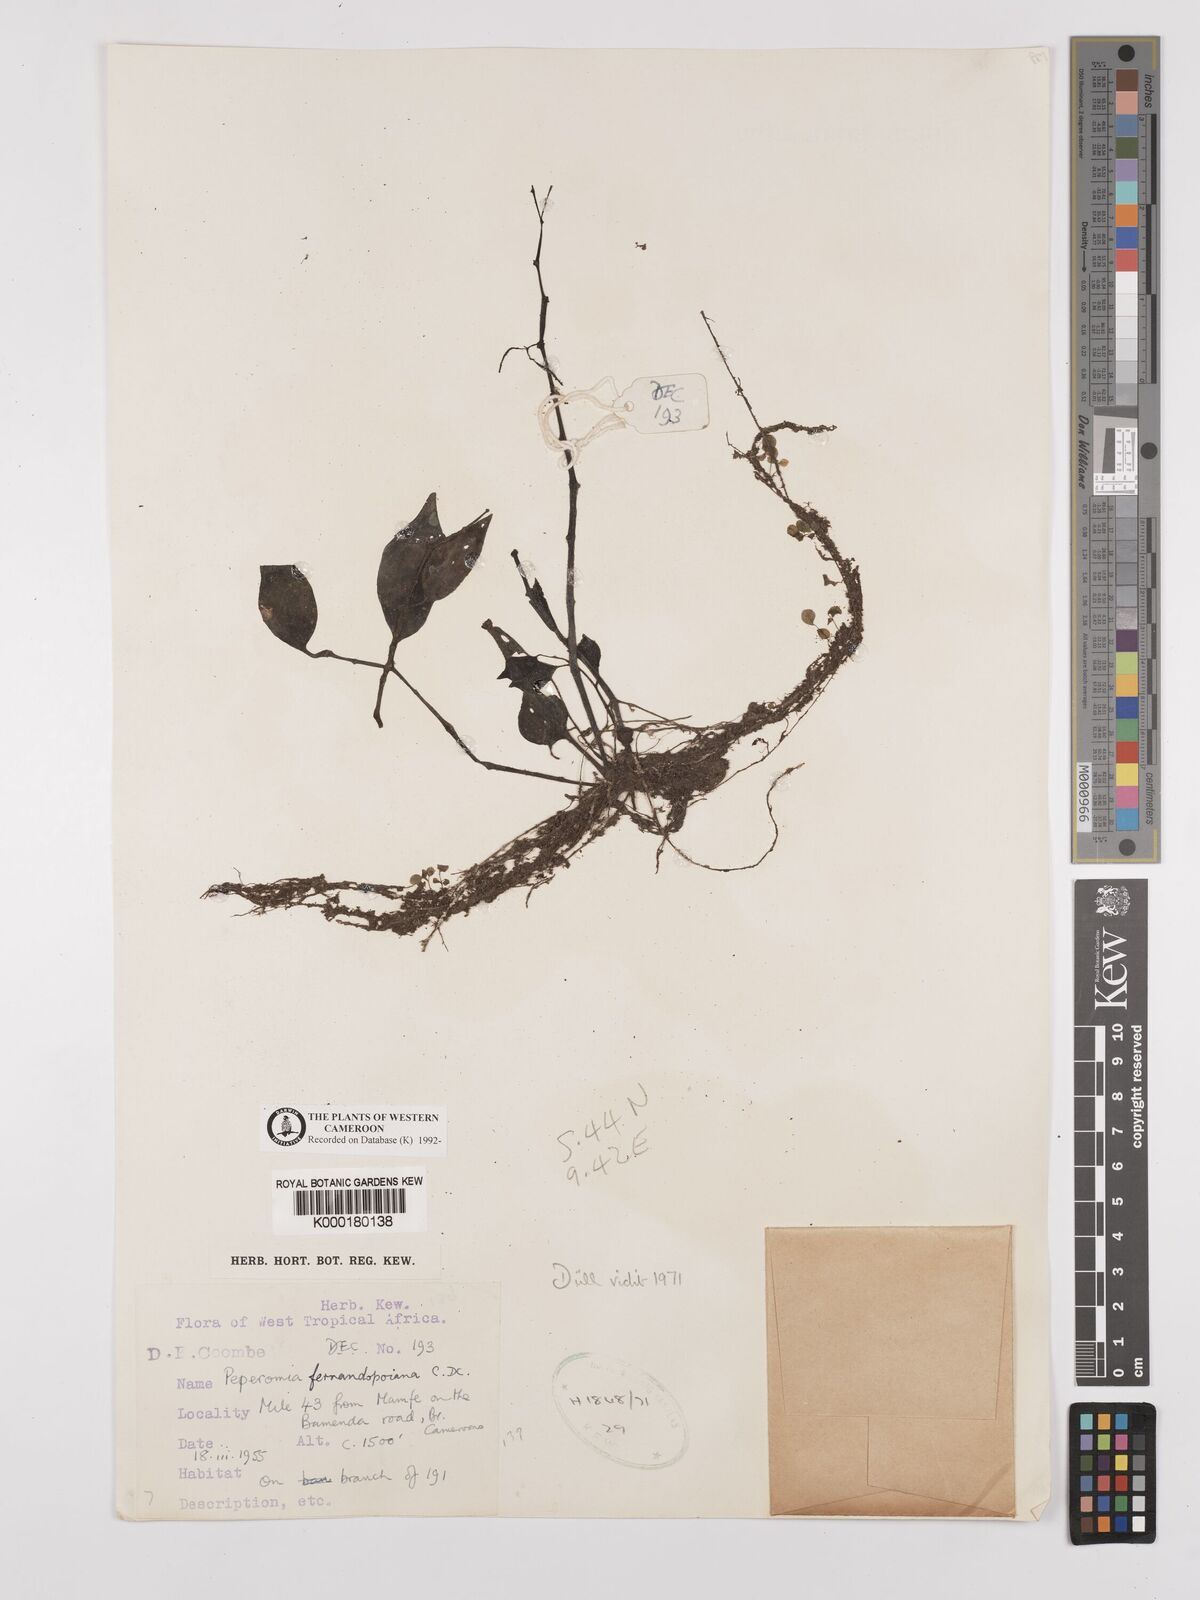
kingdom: Plantae
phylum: Tracheophyta
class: Magnoliopsida
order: Piperales
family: Piperaceae
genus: Peperomia
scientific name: Peperomia fernandopoiana
